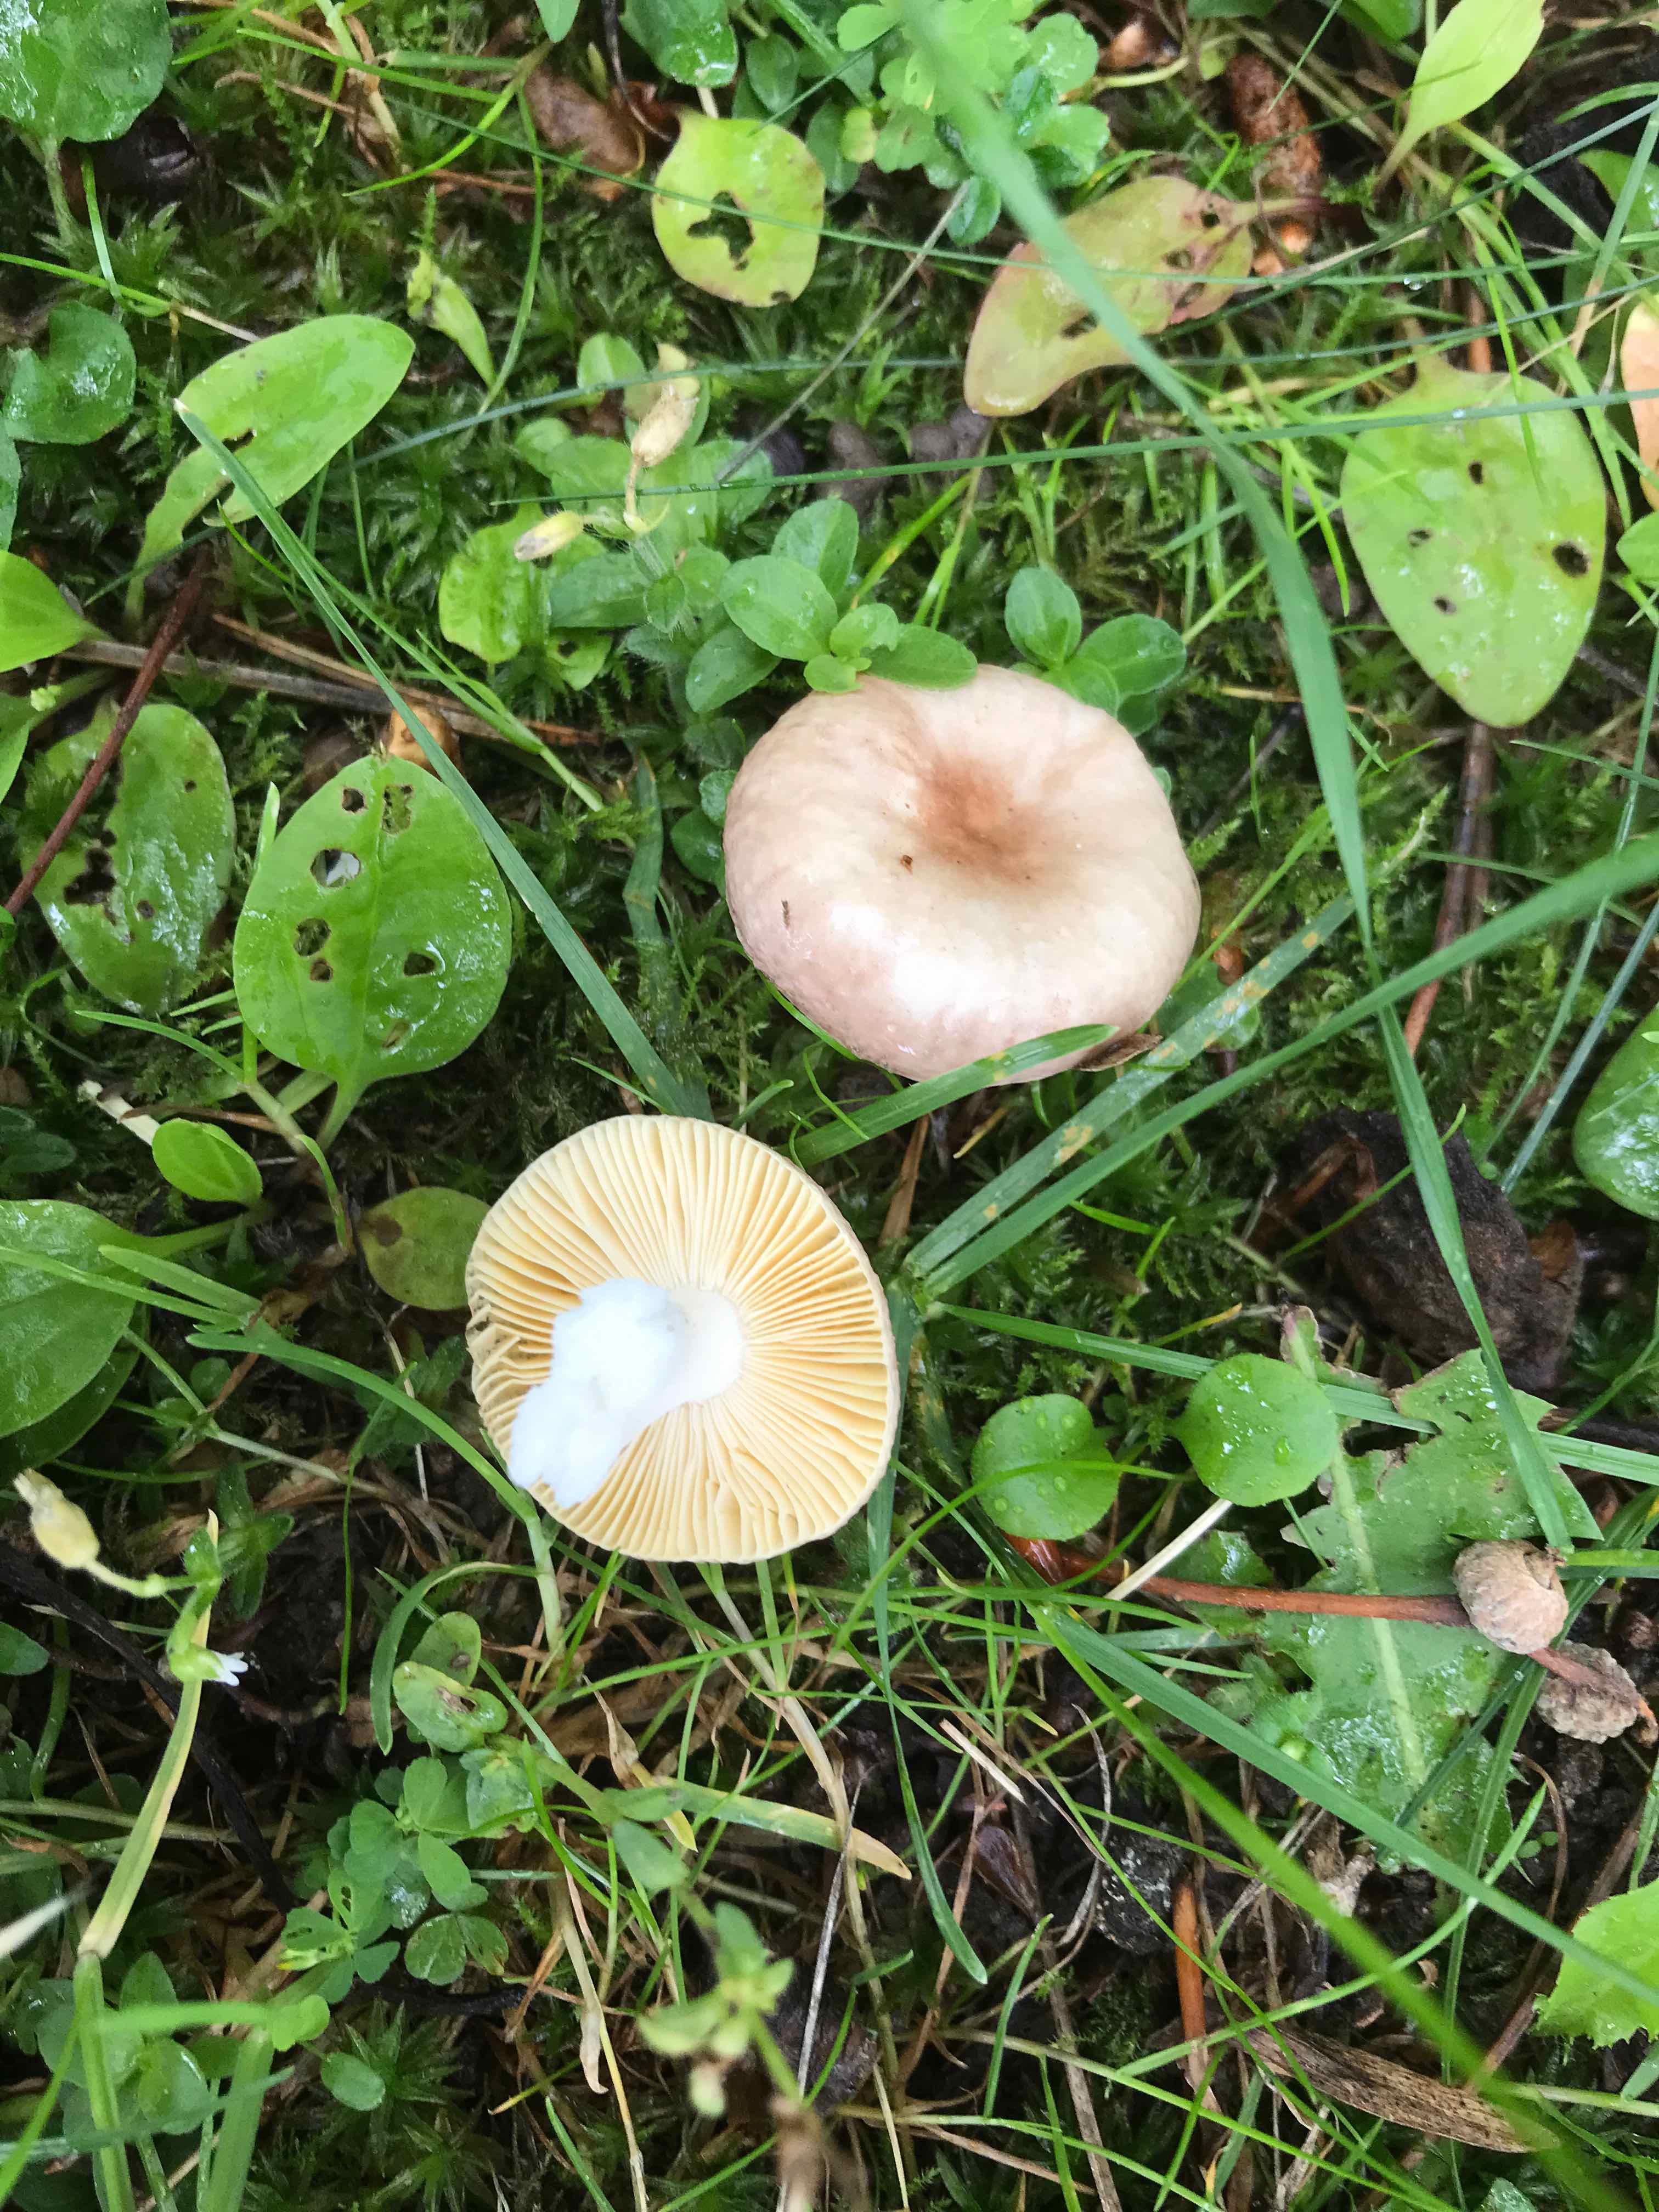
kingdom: Fungi
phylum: Basidiomycota
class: Agaricomycetes
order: Russulales
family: Russulaceae
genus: Russula
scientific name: Russula cessans
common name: fyrre-skørhat
